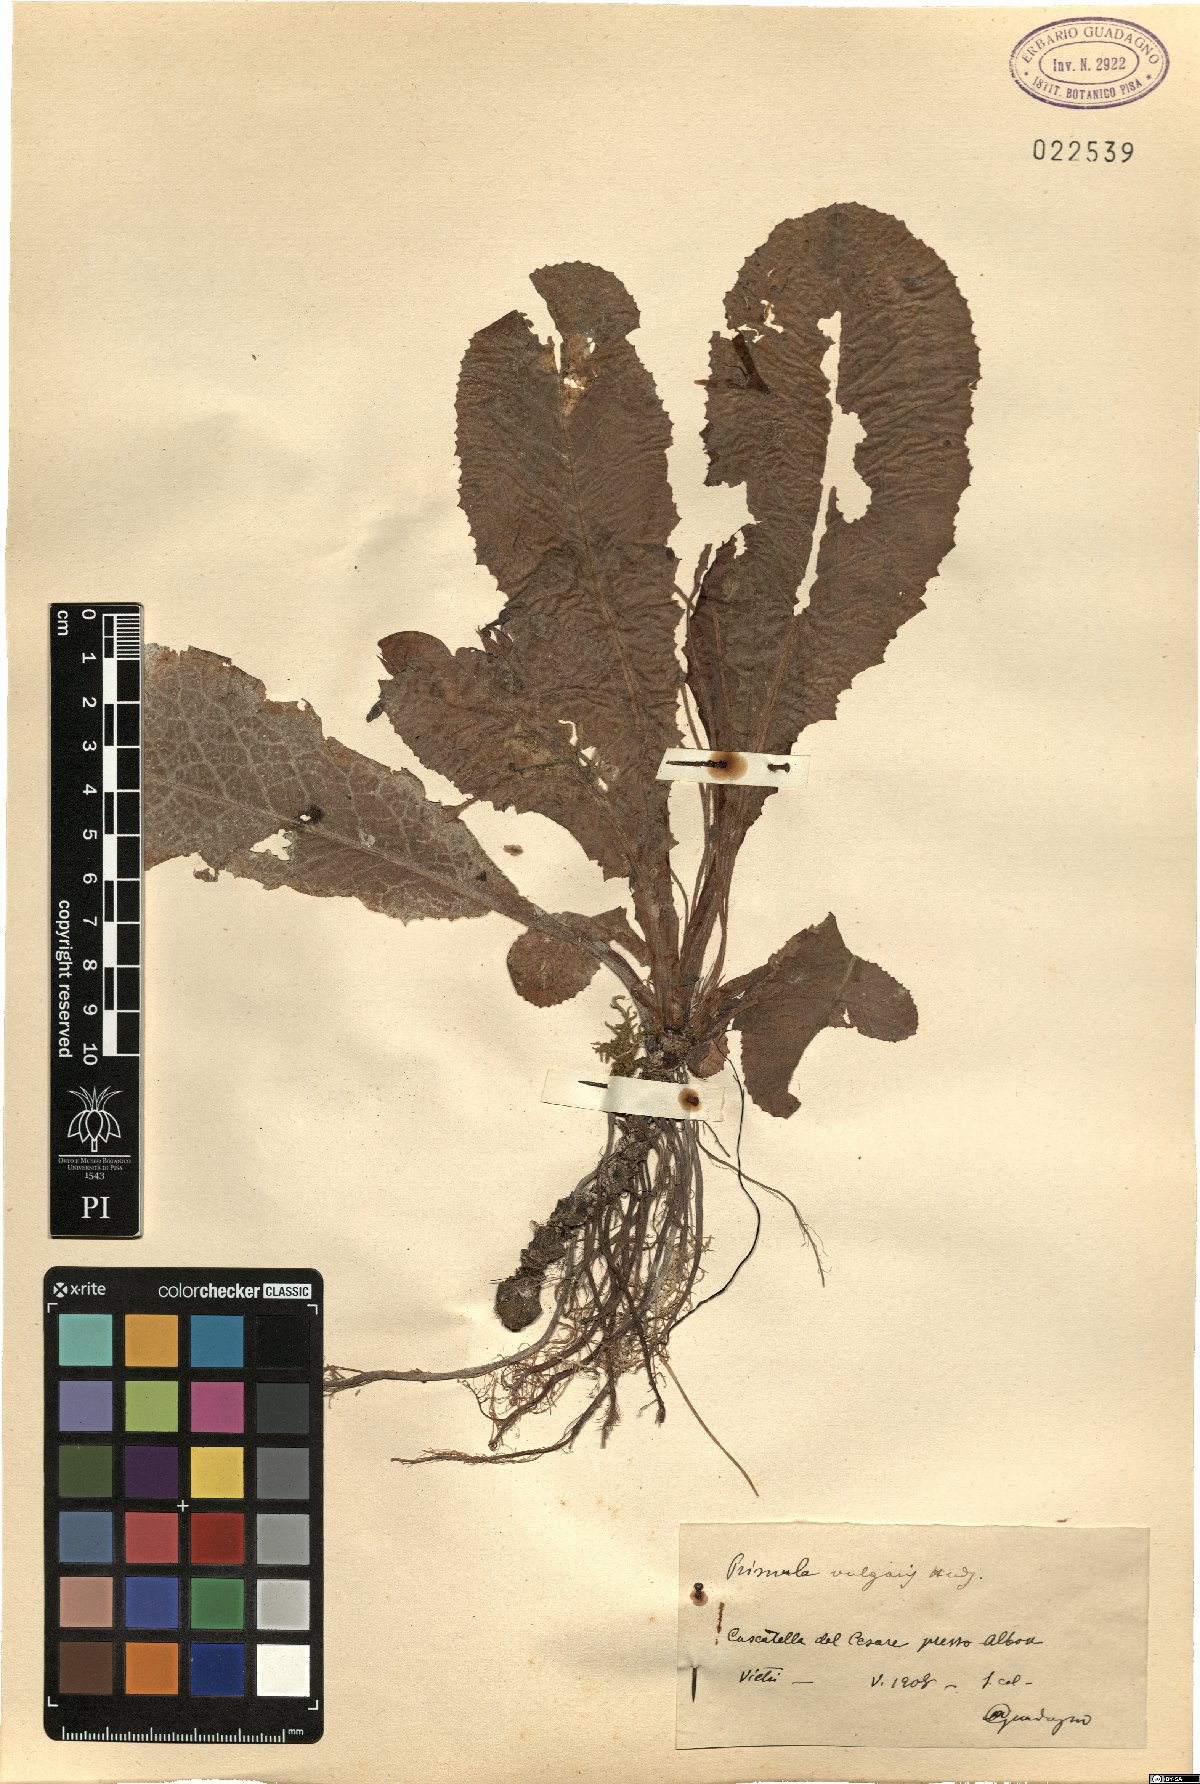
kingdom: Plantae
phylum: Tracheophyta
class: Magnoliopsida
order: Ericales
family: Primulaceae
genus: Primula
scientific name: Primula vulgaris
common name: Primrose
